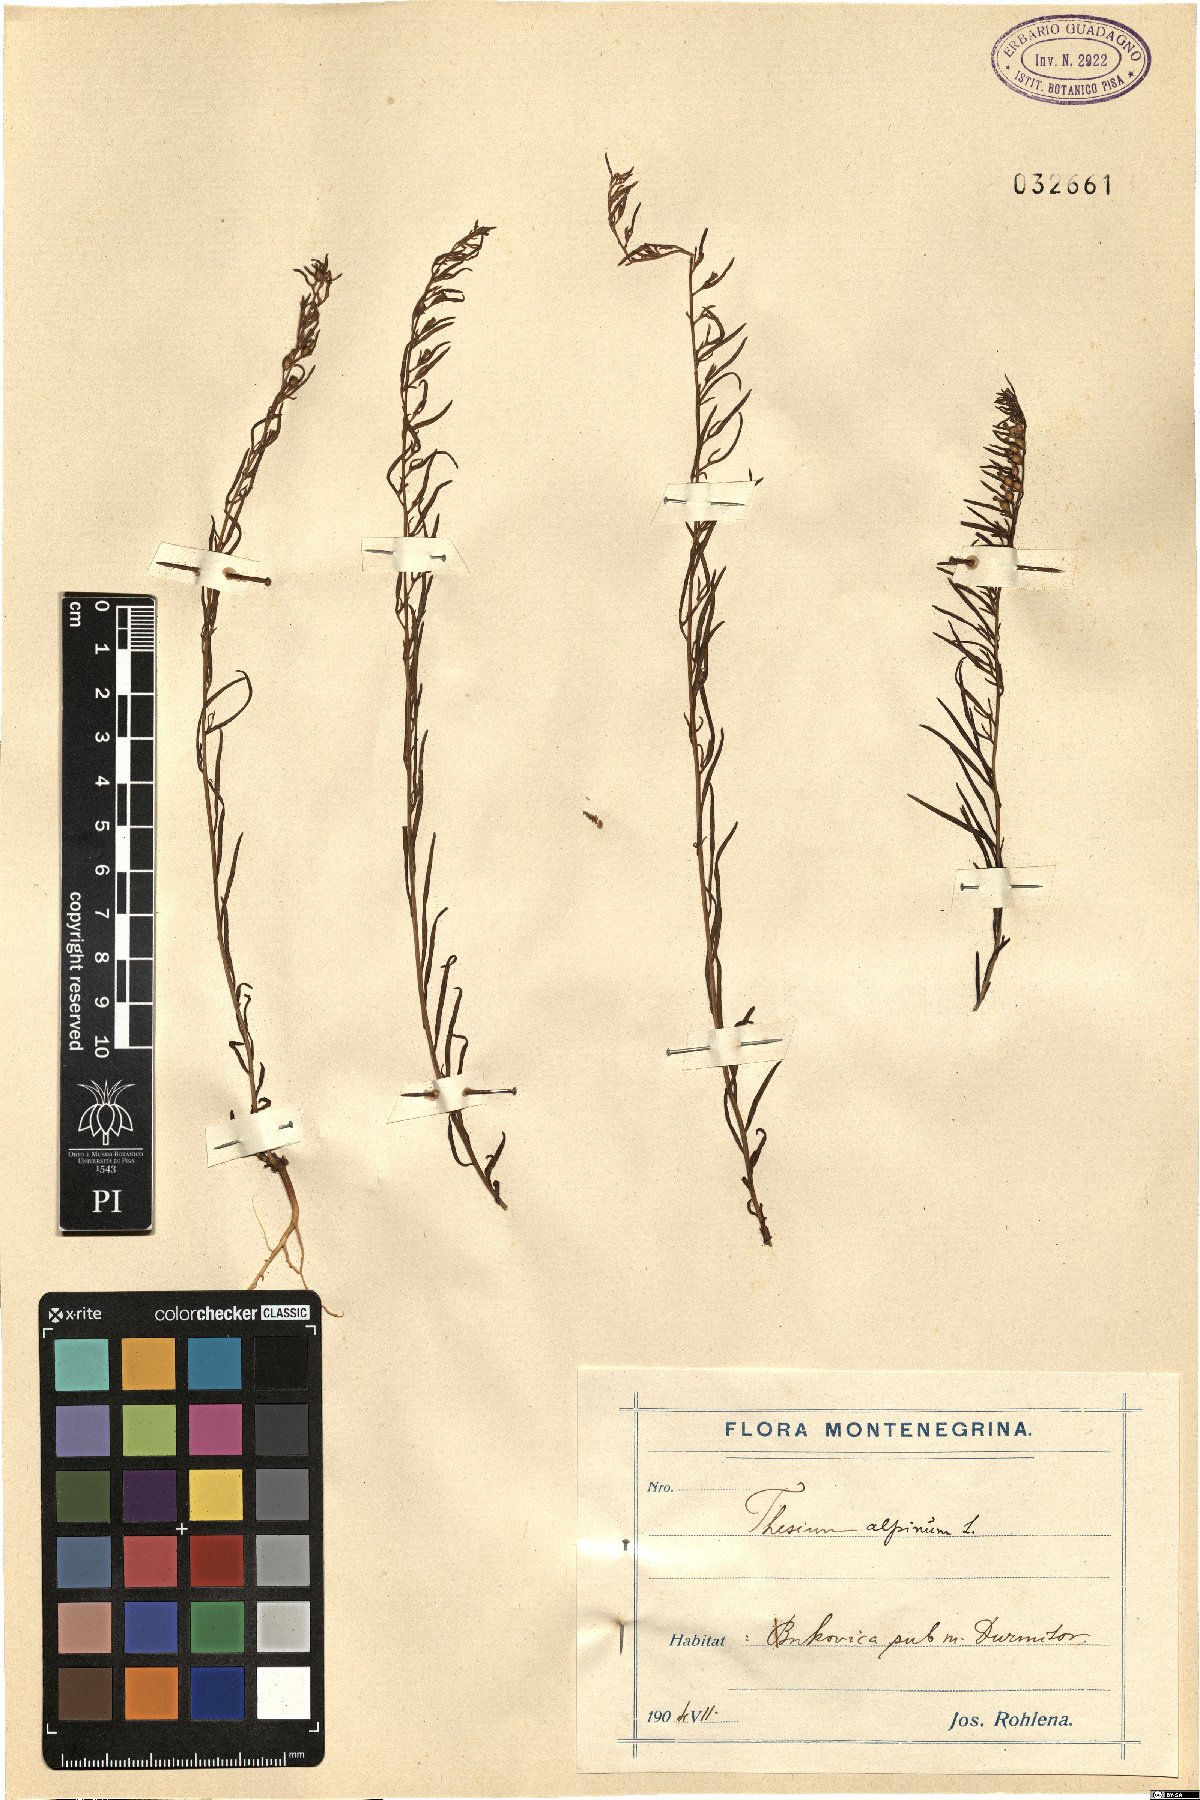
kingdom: Plantae
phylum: Tracheophyta
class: Magnoliopsida
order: Santalales
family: Thesiaceae
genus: Thesium
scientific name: Thesium alpinum
